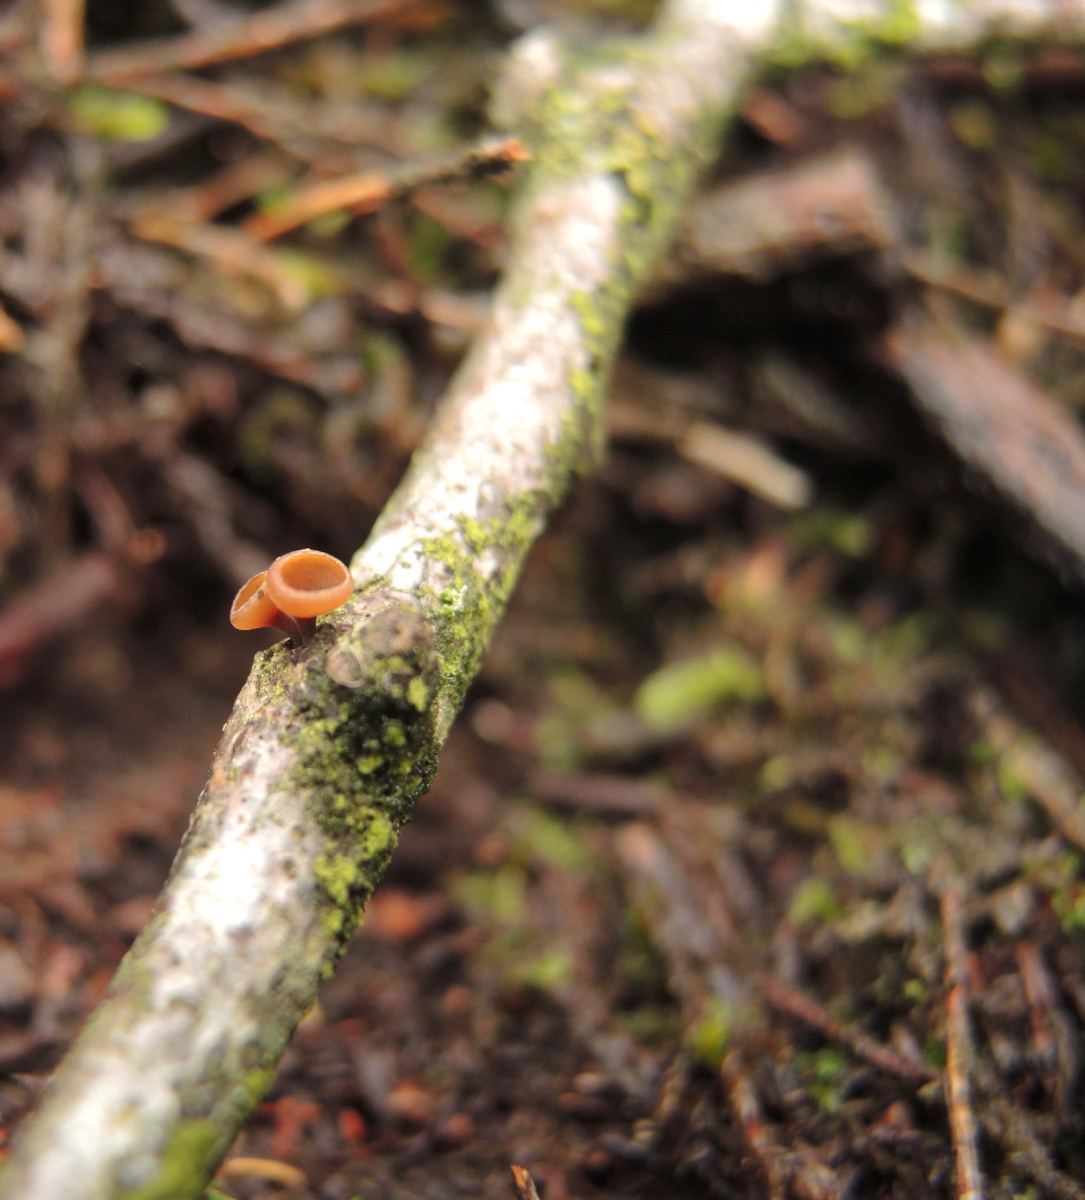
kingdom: Fungi
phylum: Ascomycota
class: Leotiomycetes
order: Helotiales
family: Rutstroemiaceae
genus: Rutstroemia
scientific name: Rutstroemia firma
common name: gren-brunskive
